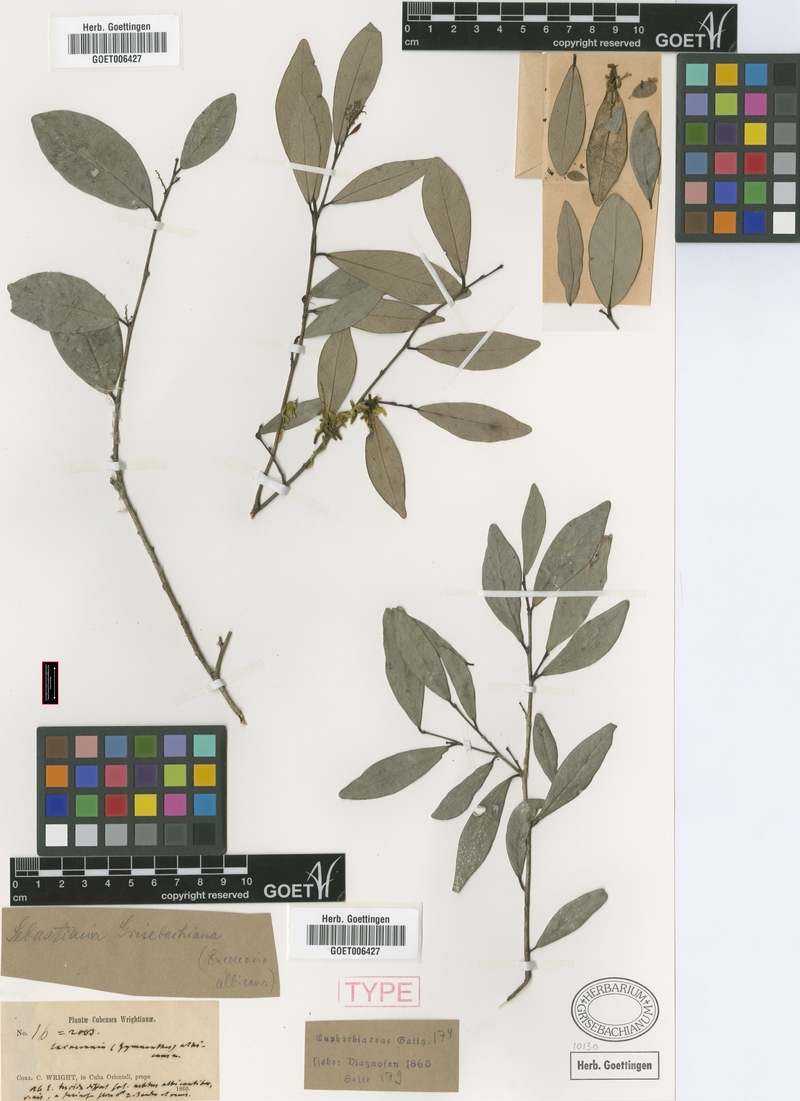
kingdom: Plantae
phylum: Tracheophyta
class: Magnoliopsida
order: Malpighiales
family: Euphorbiaceae
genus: Gymnanthes
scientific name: Gymnanthes albicans
